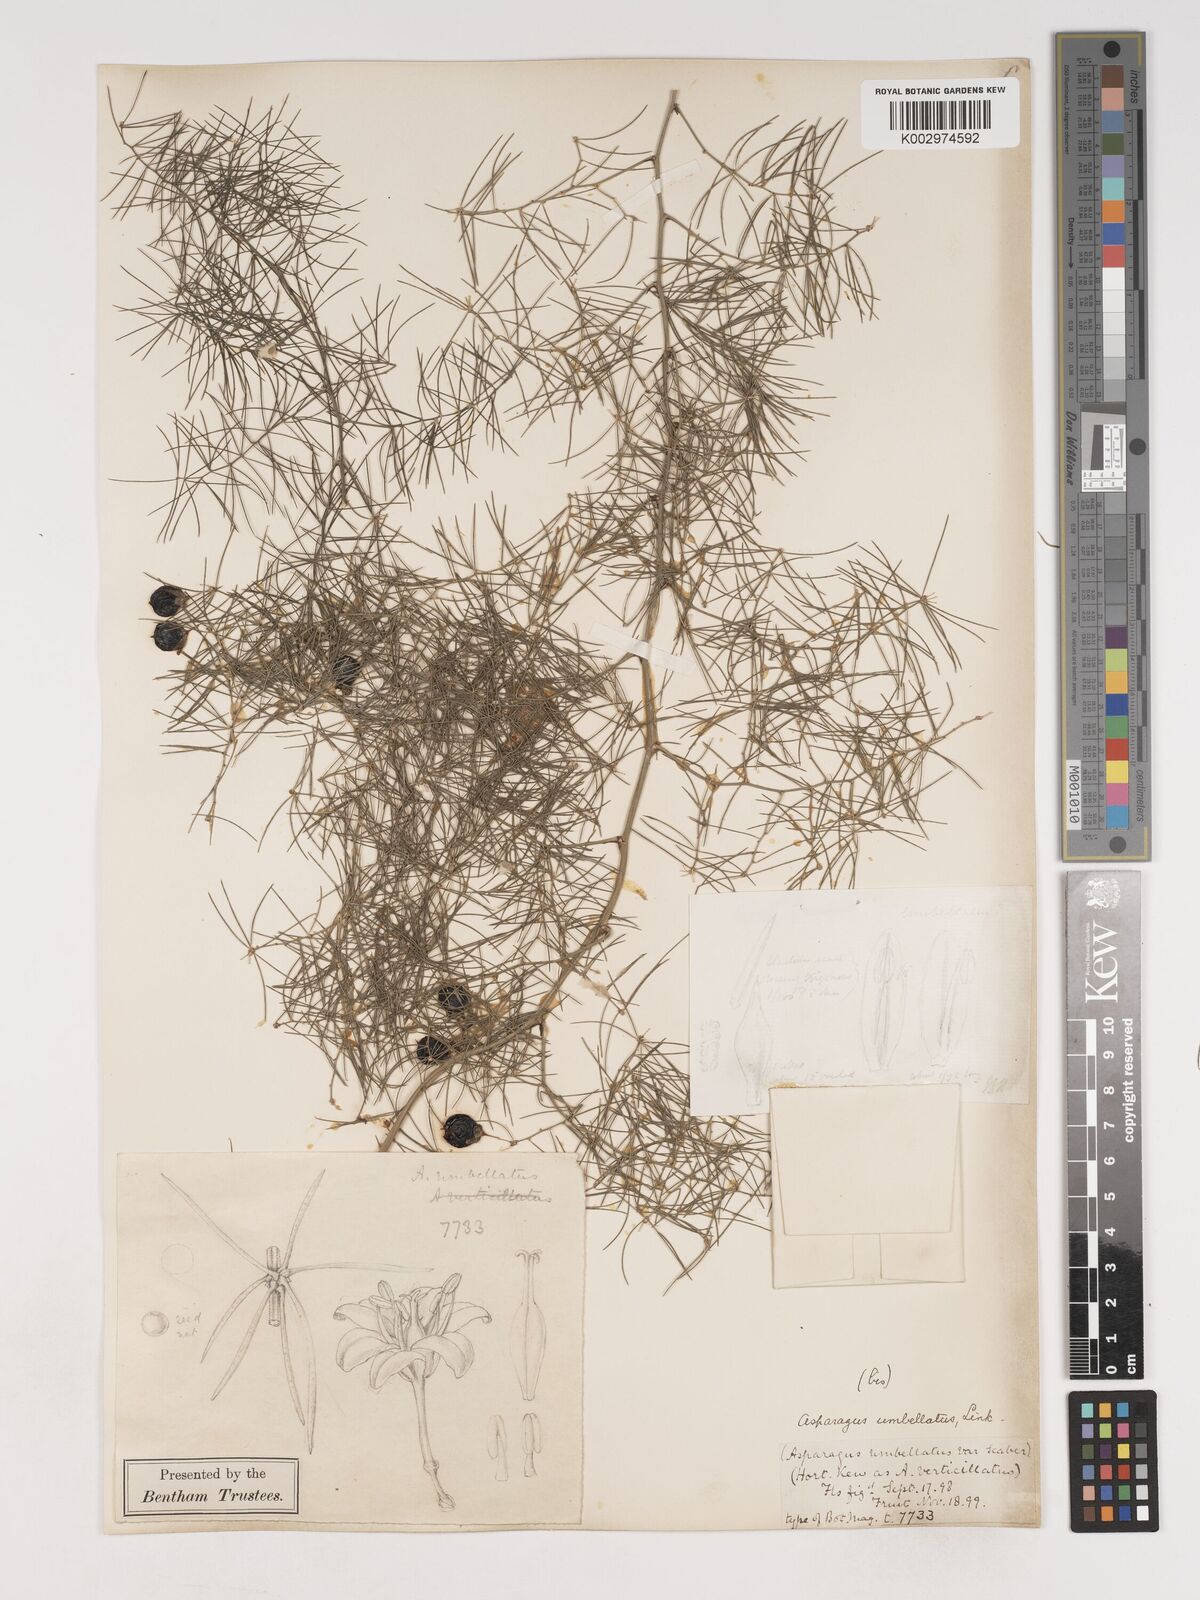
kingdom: Plantae
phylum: Tracheophyta
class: Liliopsida
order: Asparagales
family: Asparagaceae
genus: Asparagus
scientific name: Asparagus umbellatus
